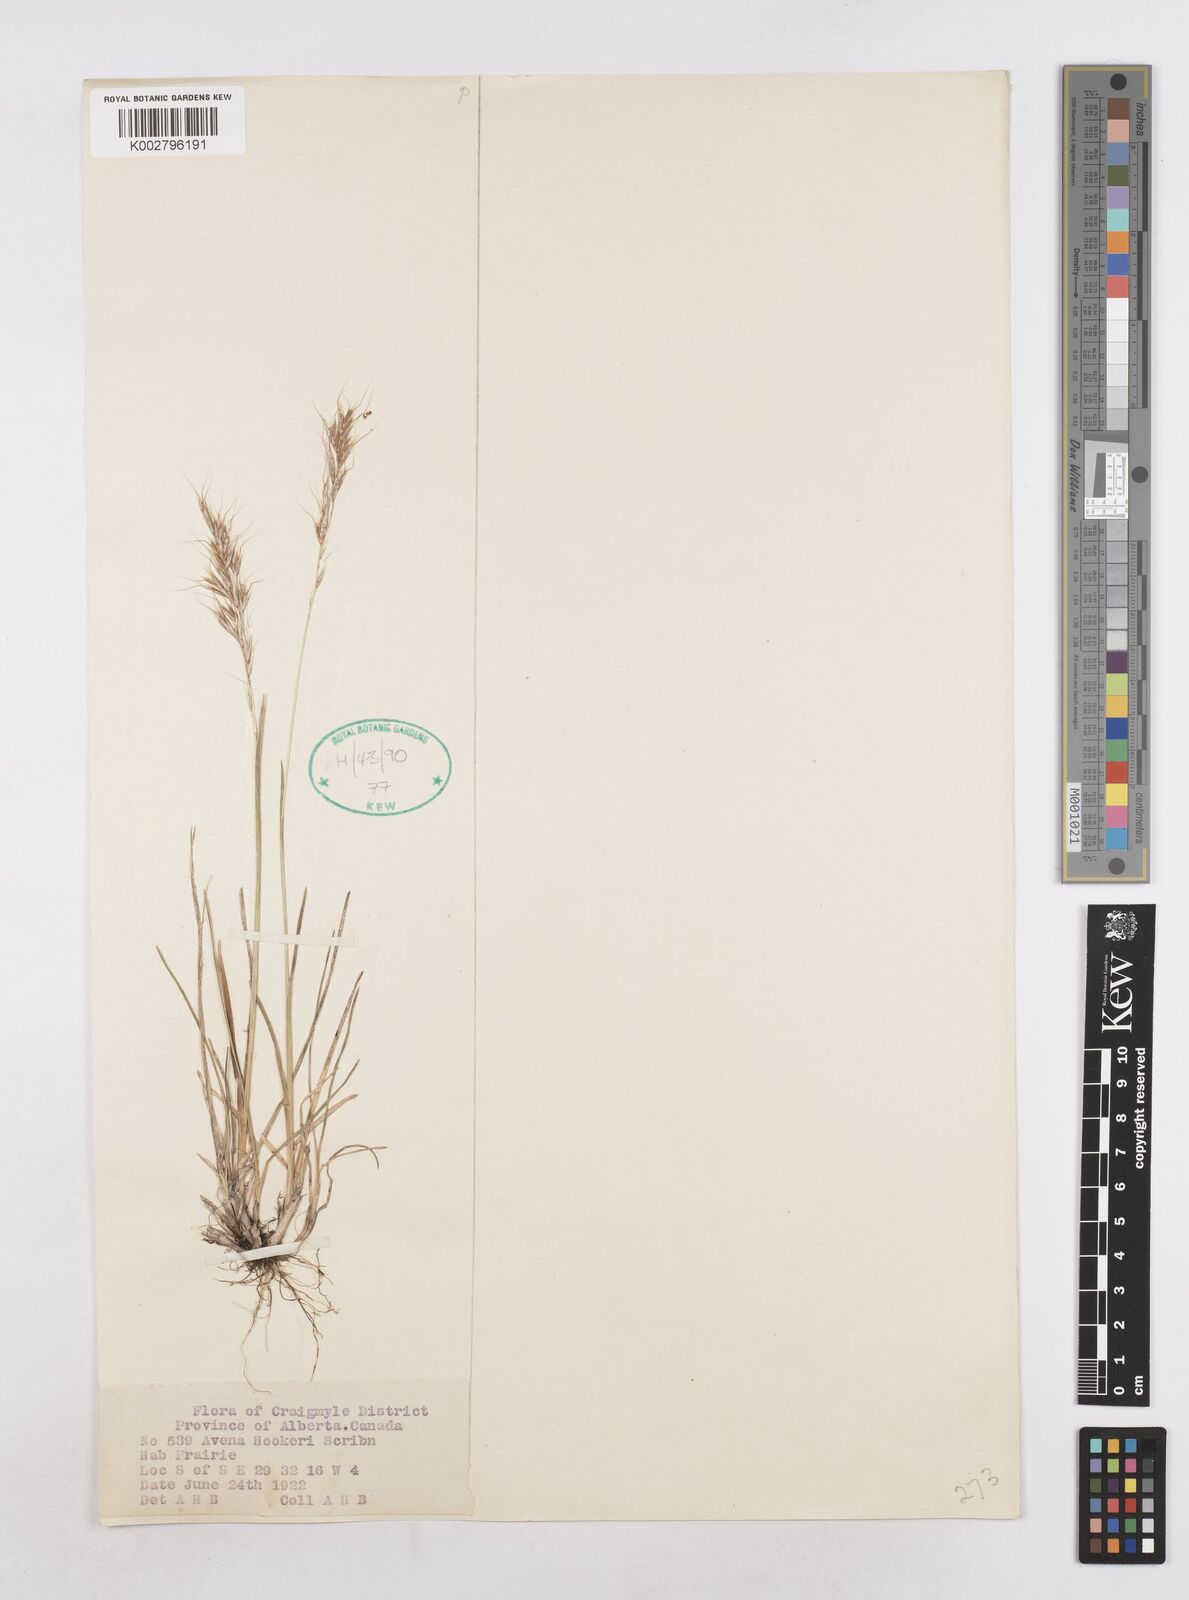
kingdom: Plantae
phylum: Tracheophyta
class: Liliopsida
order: Poales
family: Poaceae
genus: Helictochloa
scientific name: Helictochloa hookeri
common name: Hooker's alpine oatgrass
